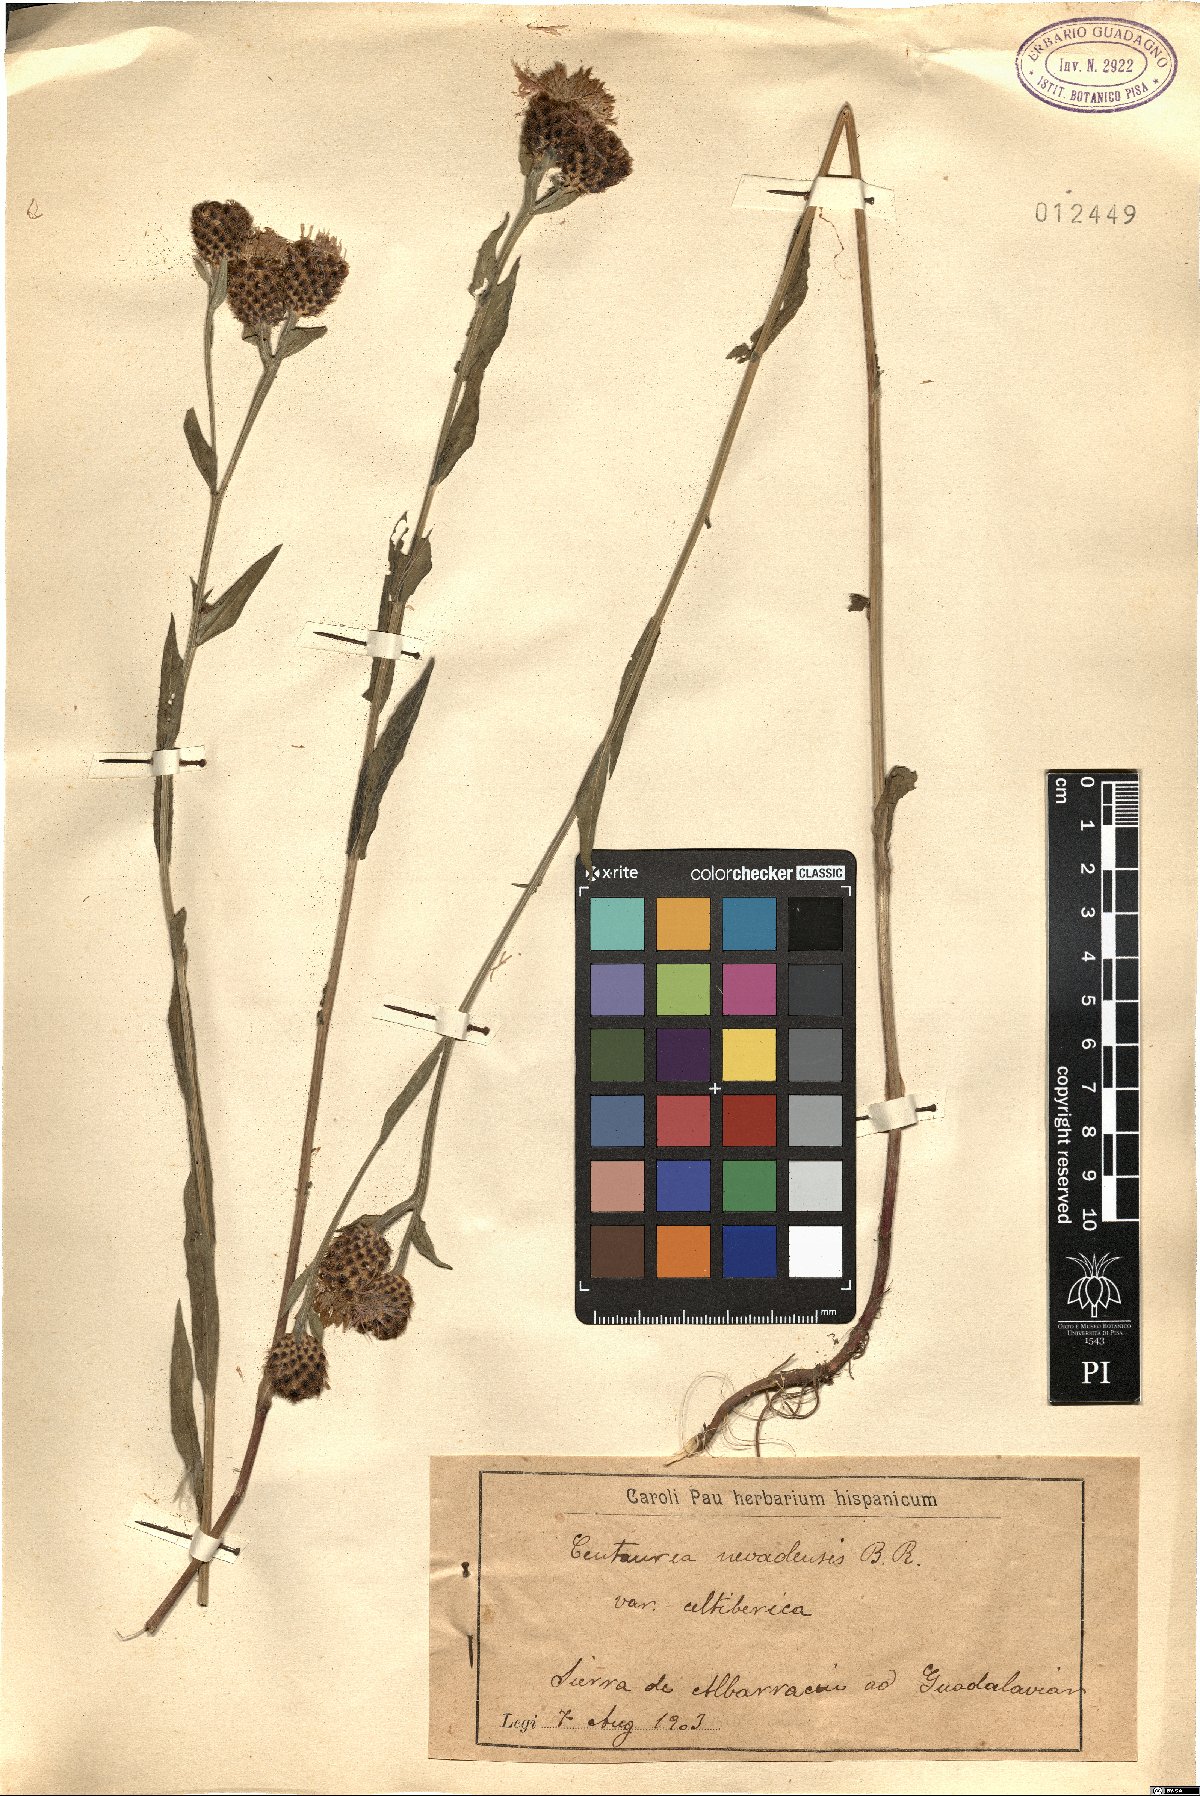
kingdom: Plantae
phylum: Tracheophyta
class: Magnoliopsida
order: Asterales
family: Asteraceae
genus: Centaurea
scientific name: Centaurea nevadensis
